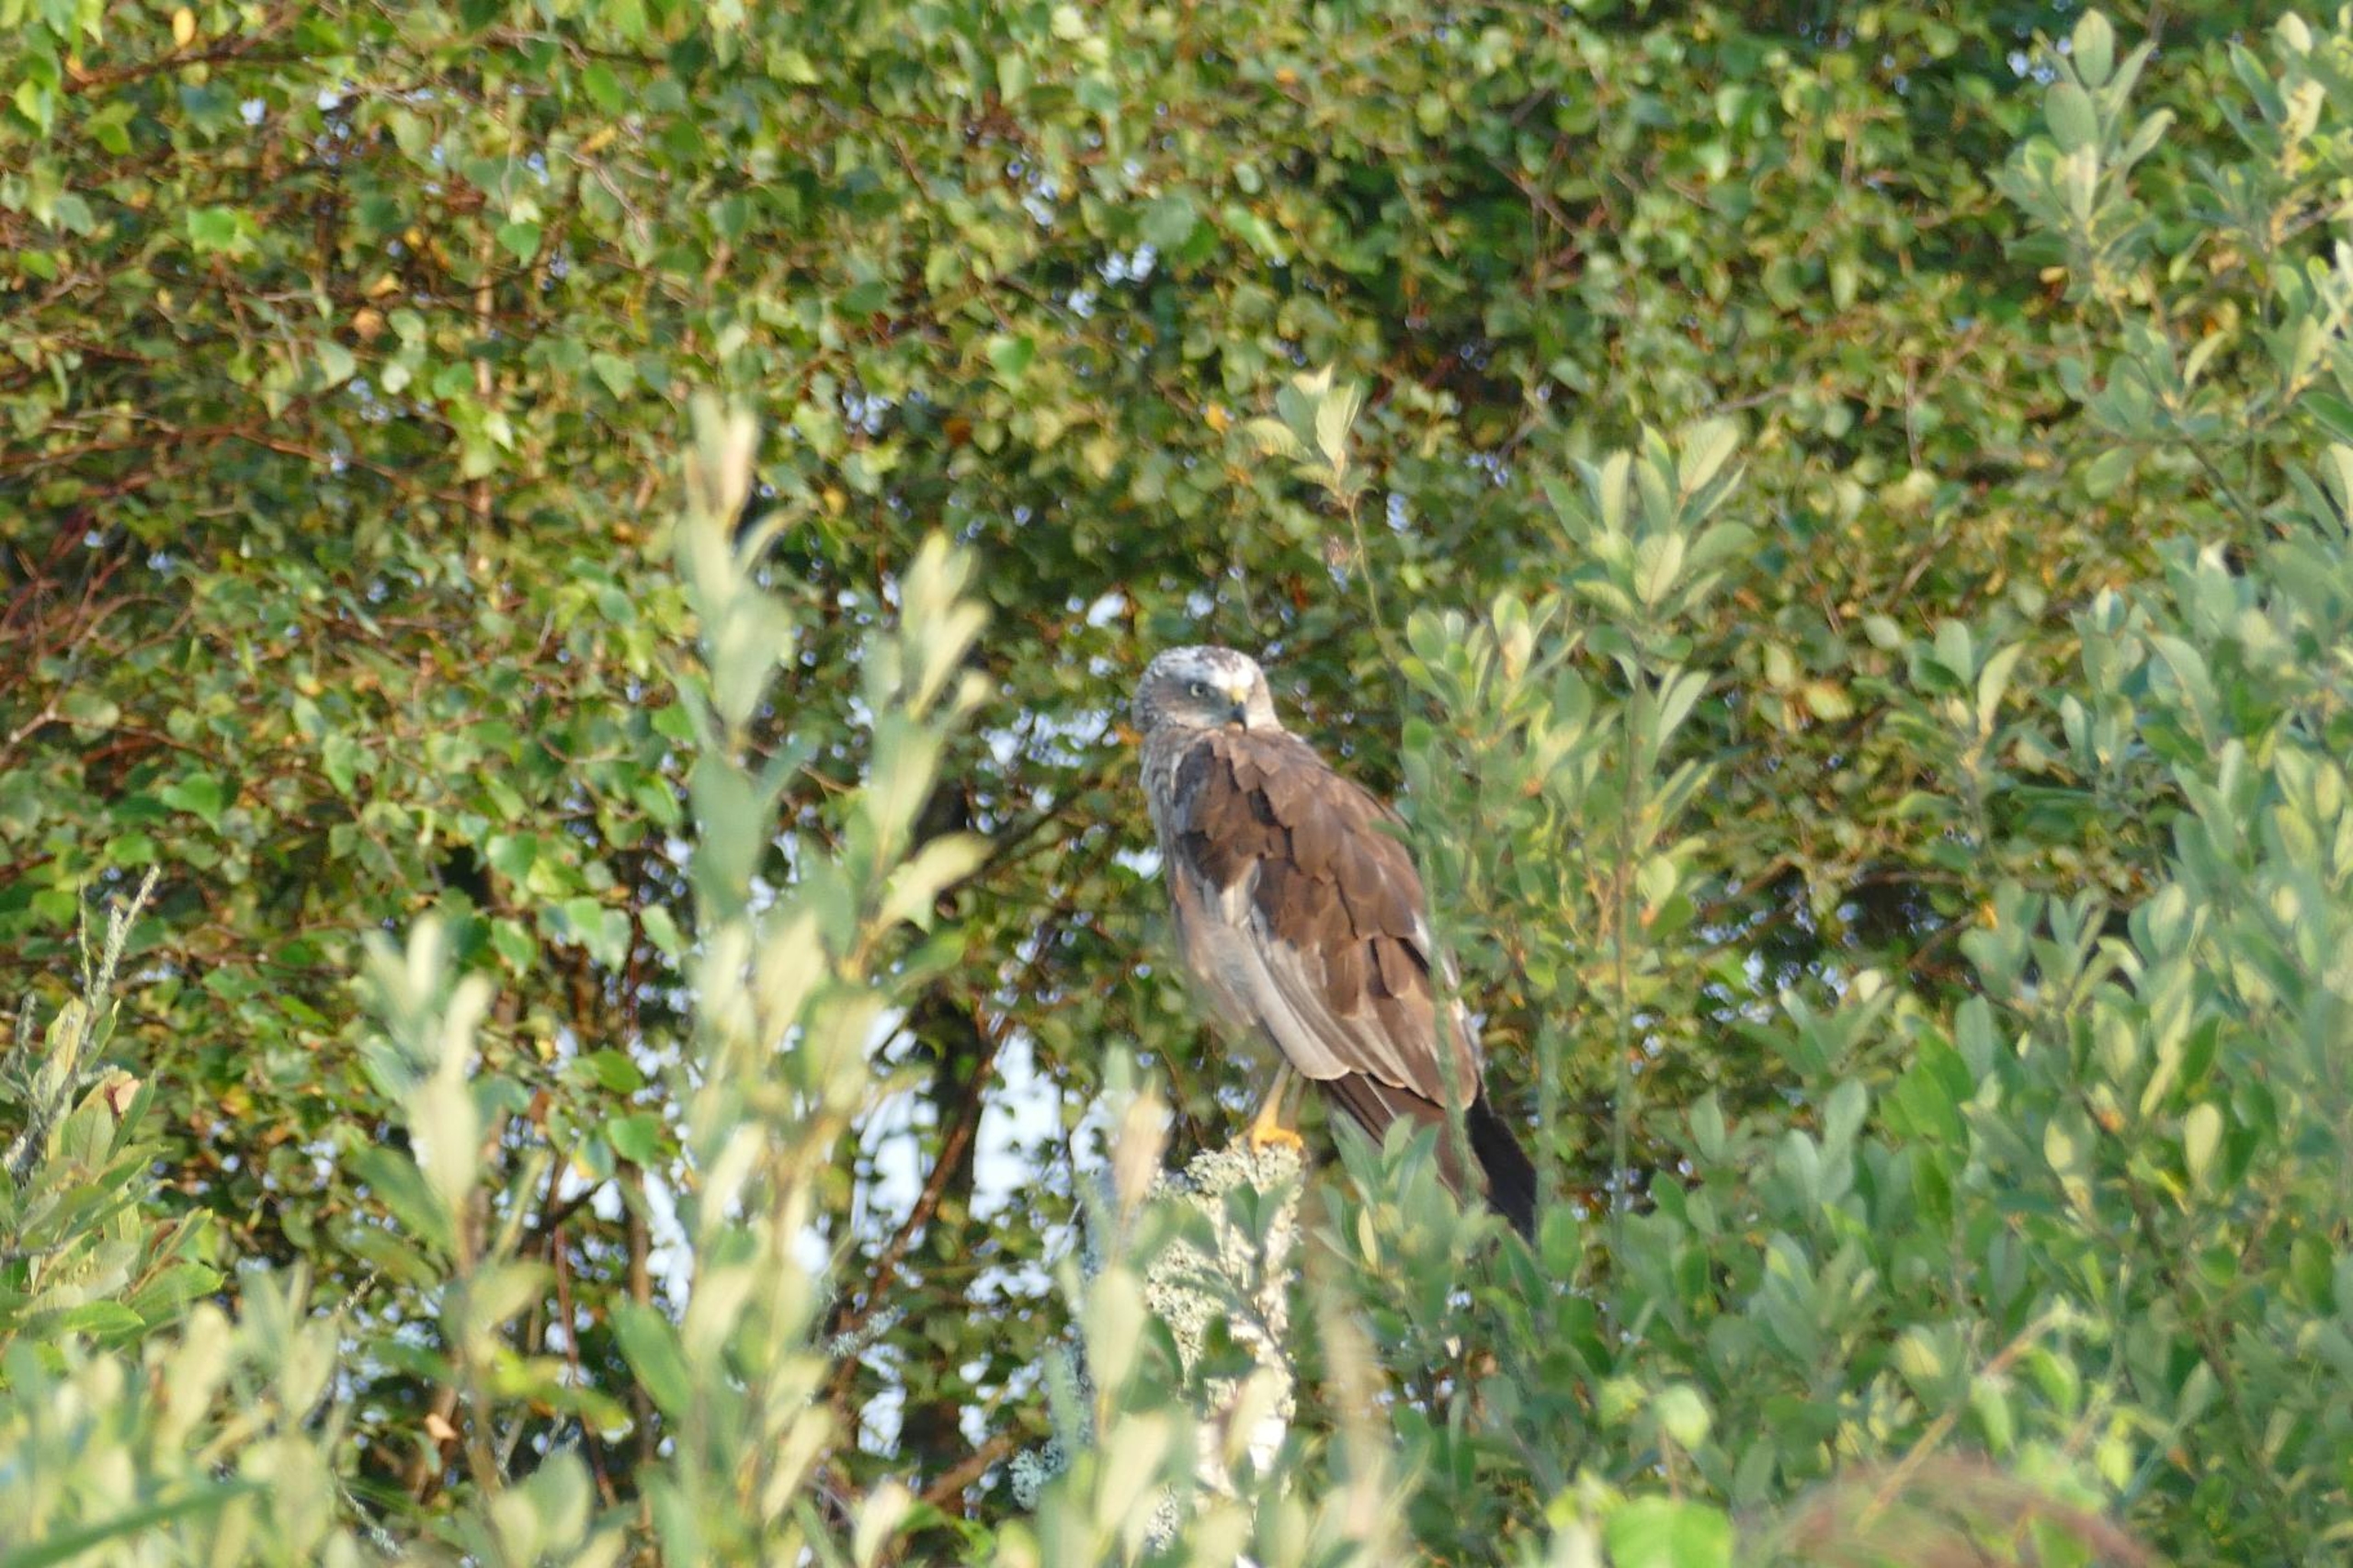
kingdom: Animalia
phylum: Chordata
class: Aves
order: Accipitriformes
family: Accipitridae
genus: Circus
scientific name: Circus aeruginosus
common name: Rørhøg
